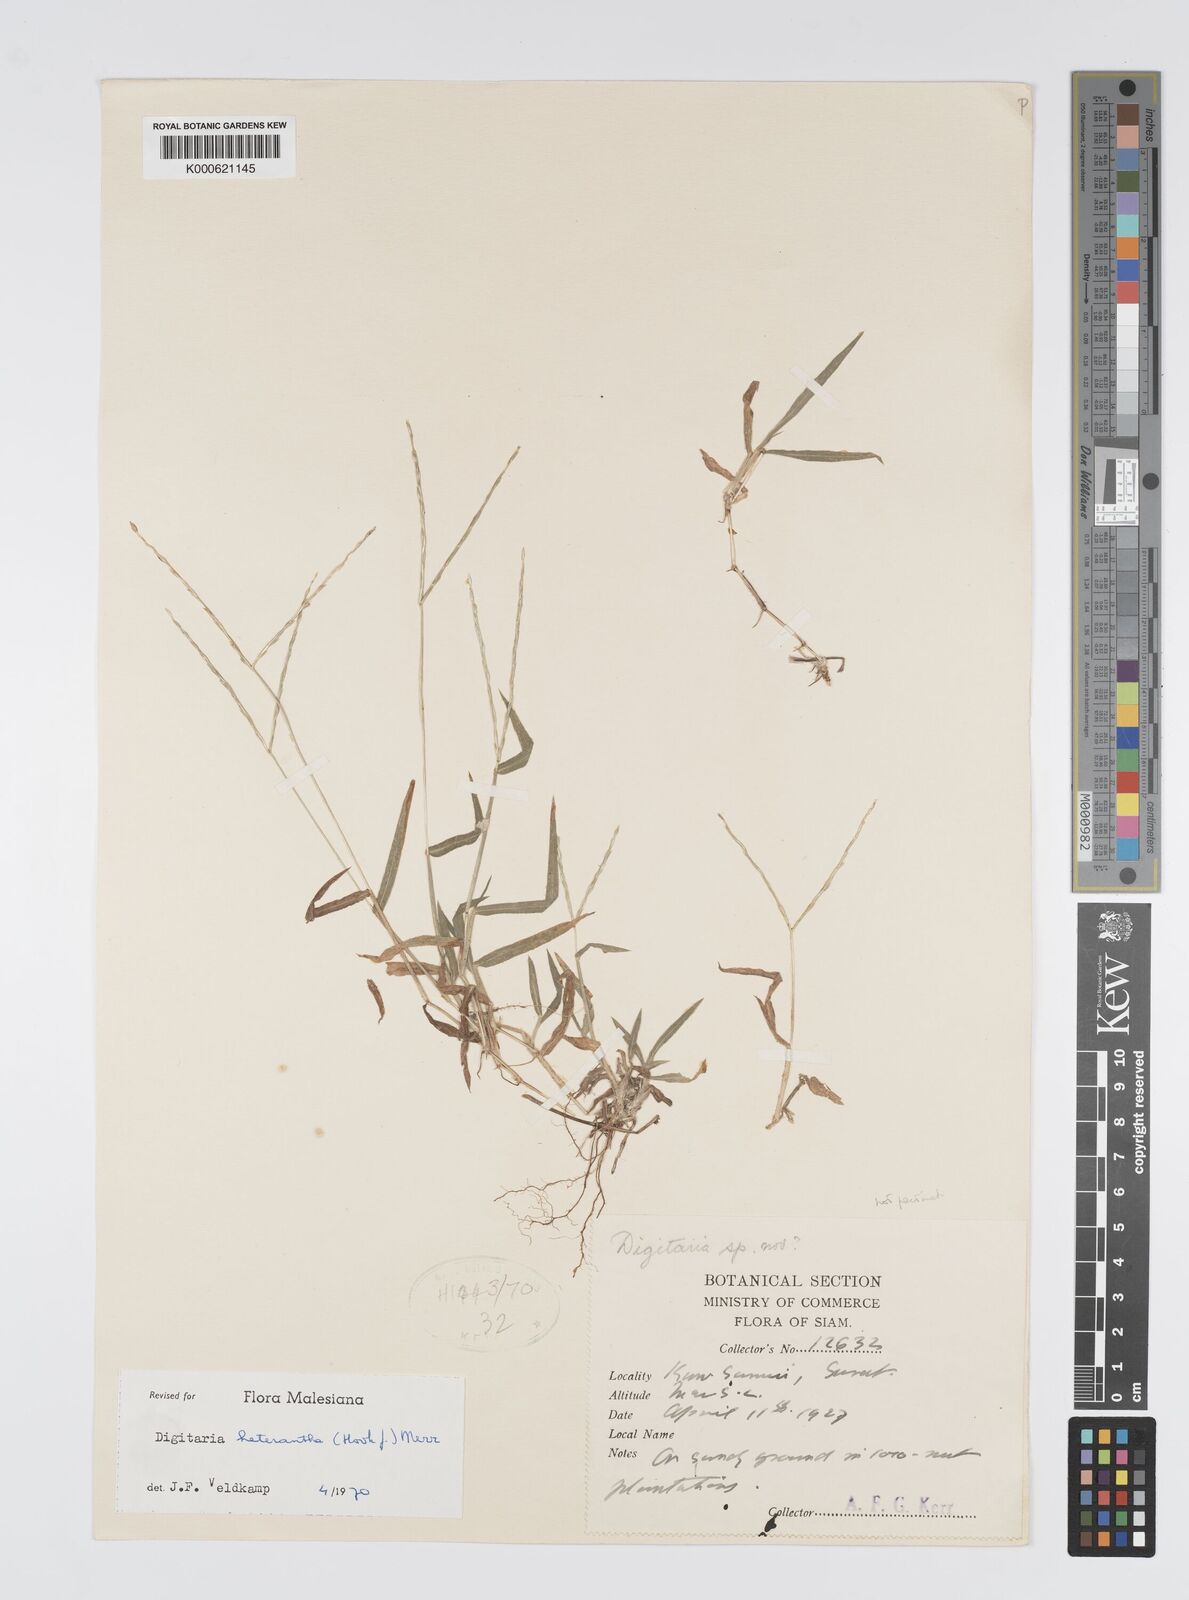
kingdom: Plantae
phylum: Tracheophyta
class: Liliopsida
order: Poales
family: Poaceae
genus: Digitaria
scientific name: Digitaria heterantha
